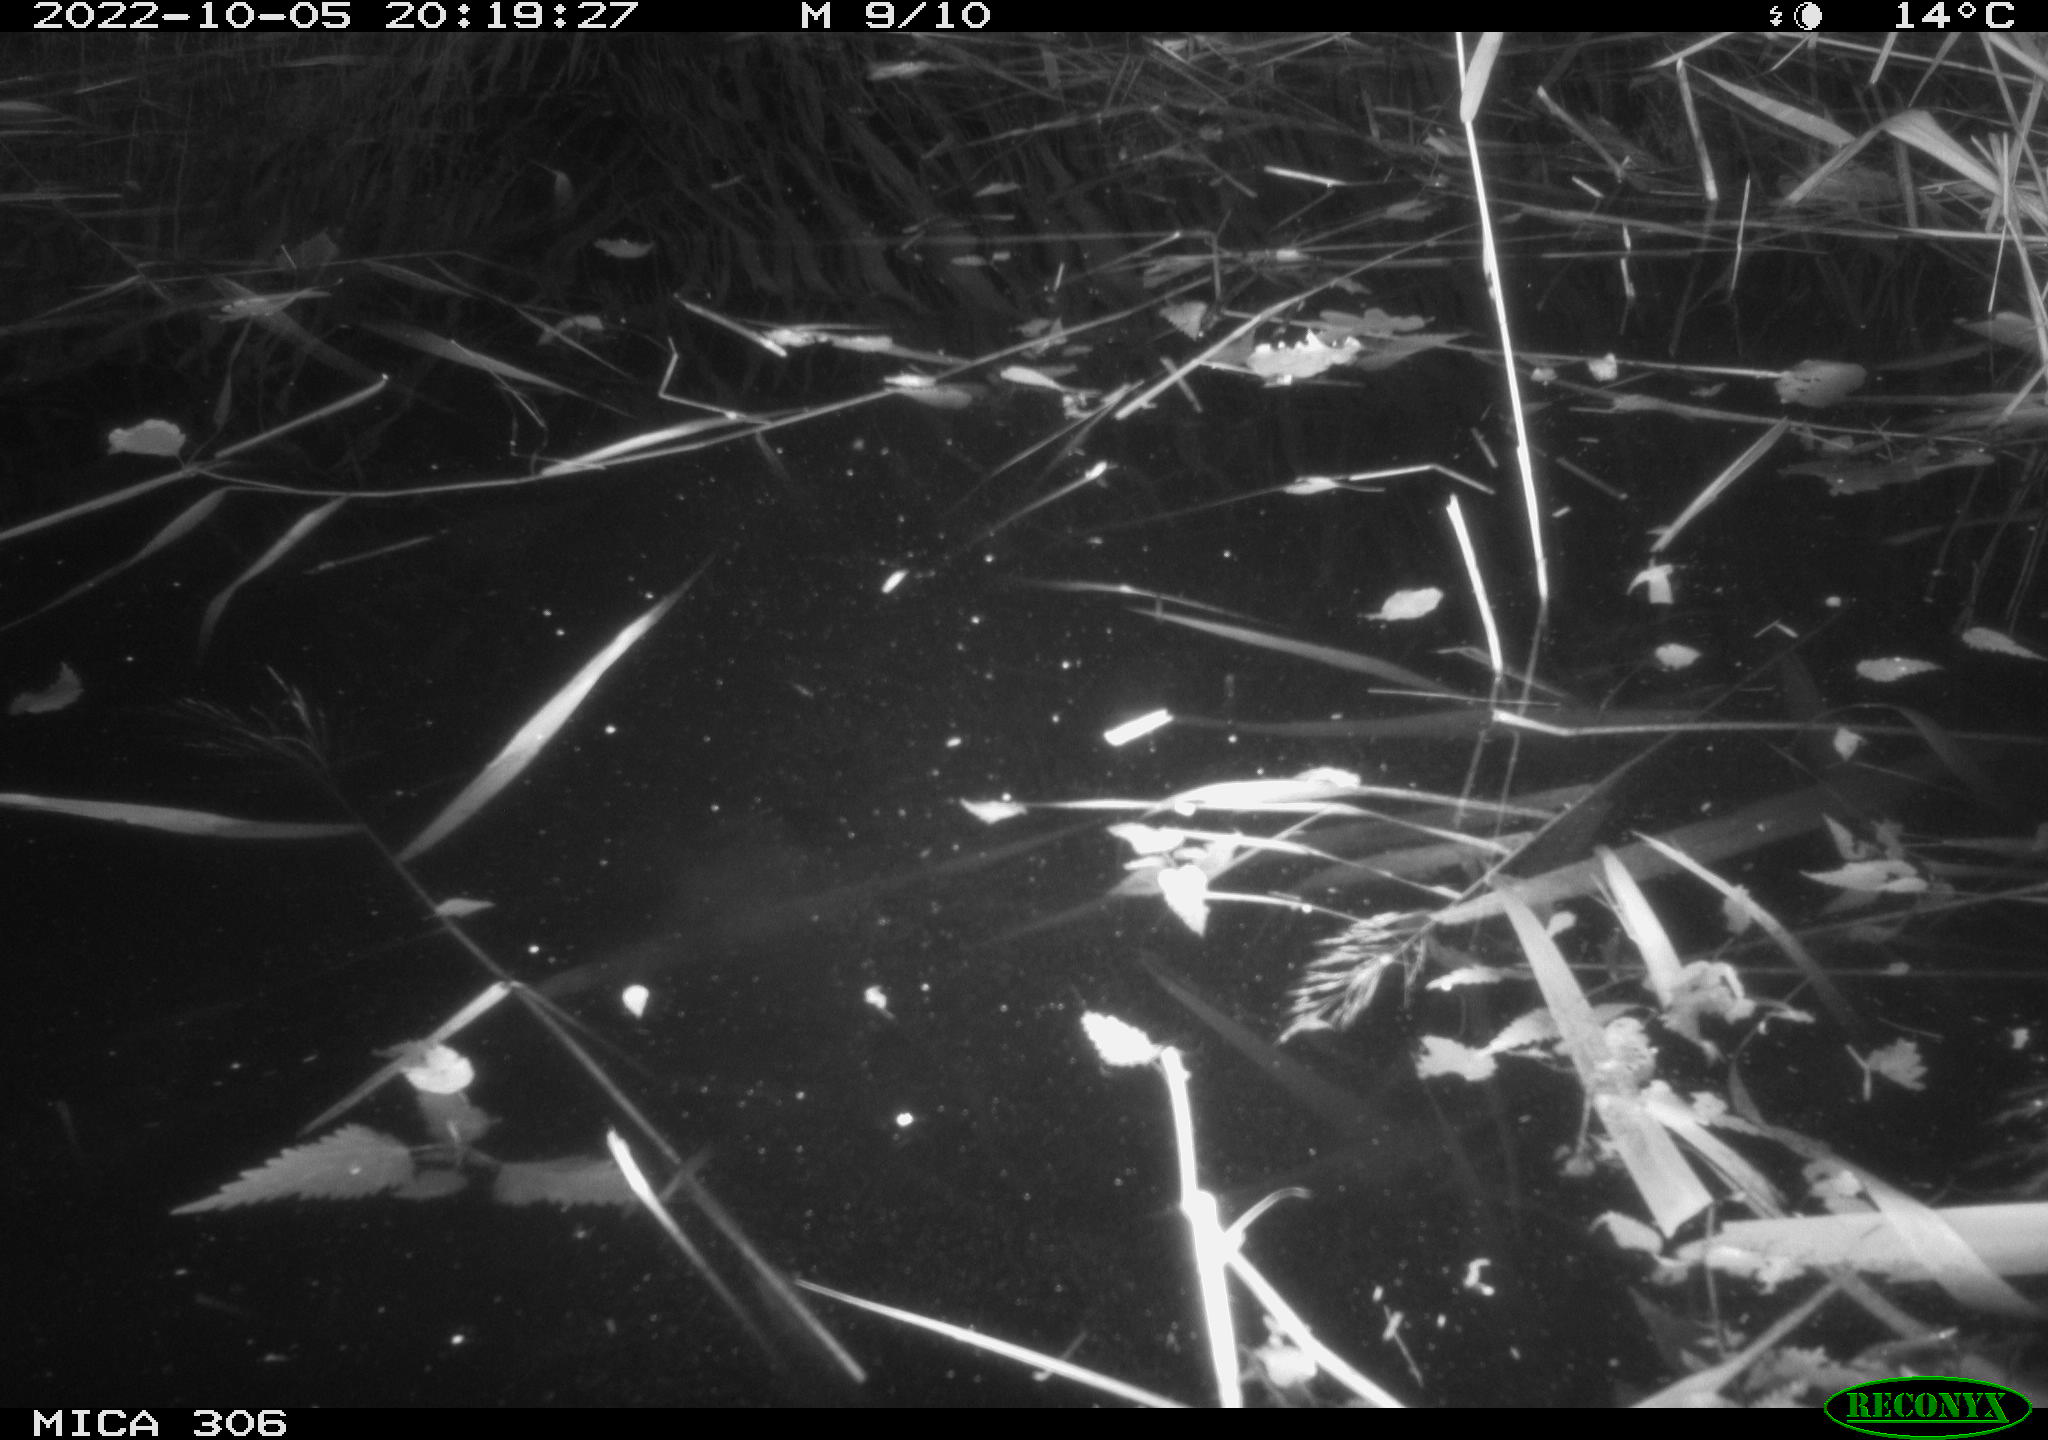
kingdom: Animalia
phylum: Chordata
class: Mammalia
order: Rodentia
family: Cricetidae
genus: Ondatra
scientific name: Ondatra zibethicus
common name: Muskrat
